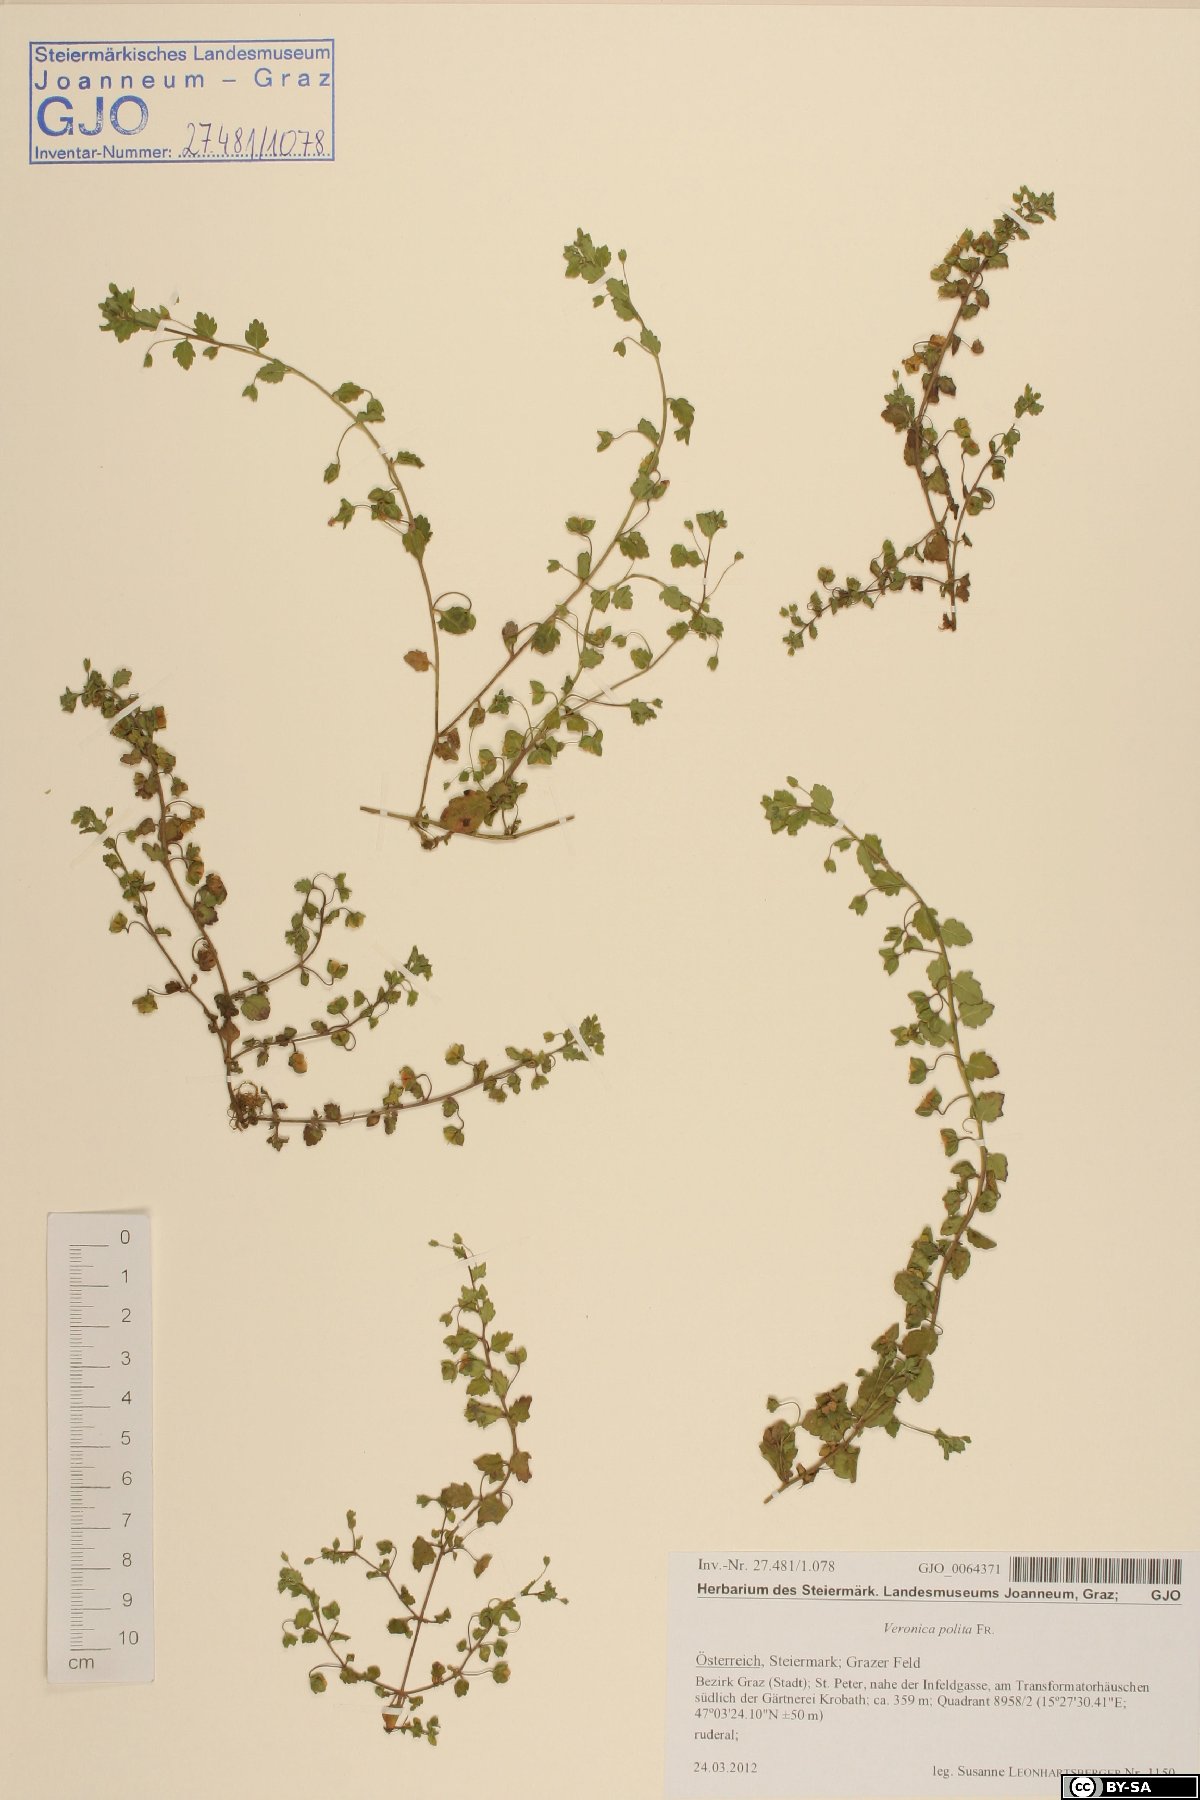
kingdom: Plantae
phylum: Tracheophyta
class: Magnoliopsida
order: Lamiales
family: Plantaginaceae
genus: Veronica
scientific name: Veronica polita
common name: Grey field-speedwell
